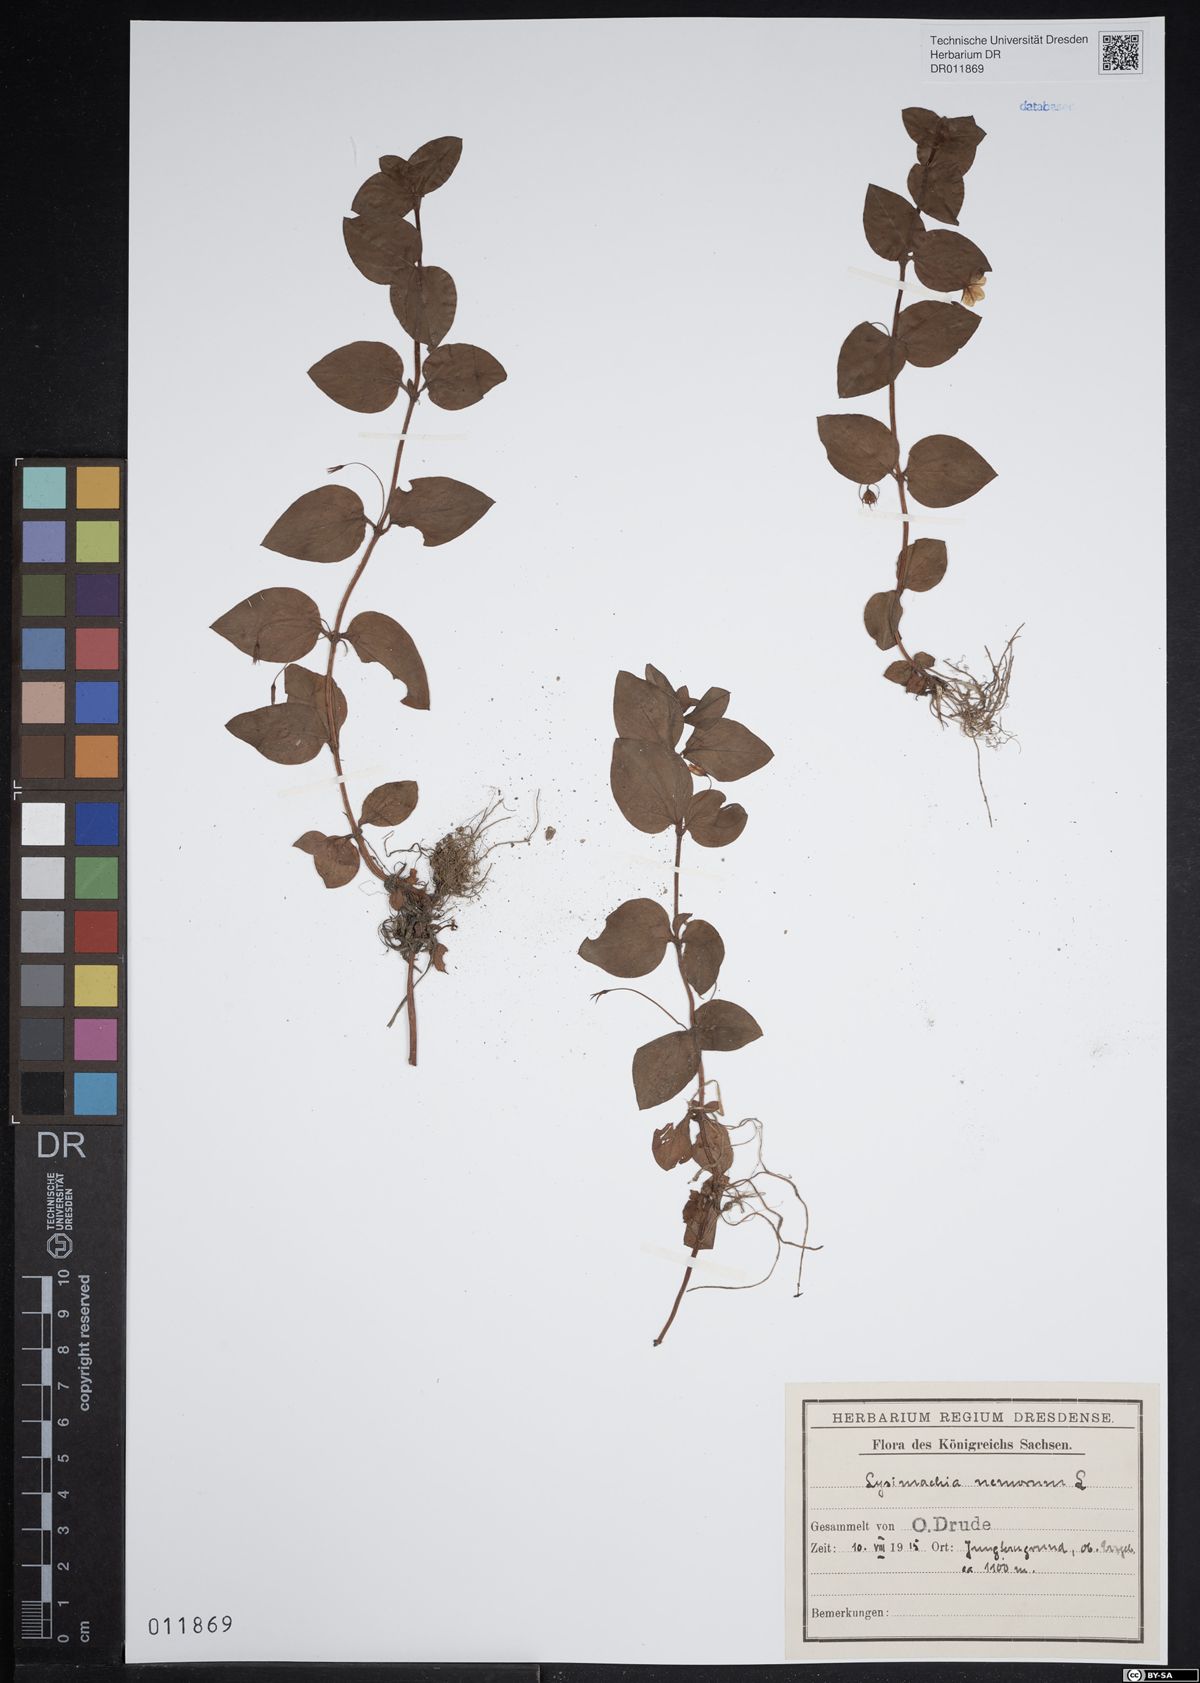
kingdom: Plantae
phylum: Tracheophyta
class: Magnoliopsida
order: Ericales
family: Primulaceae
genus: Lysimachia
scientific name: Lysimachia nemorum
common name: Yellow pimpernel
